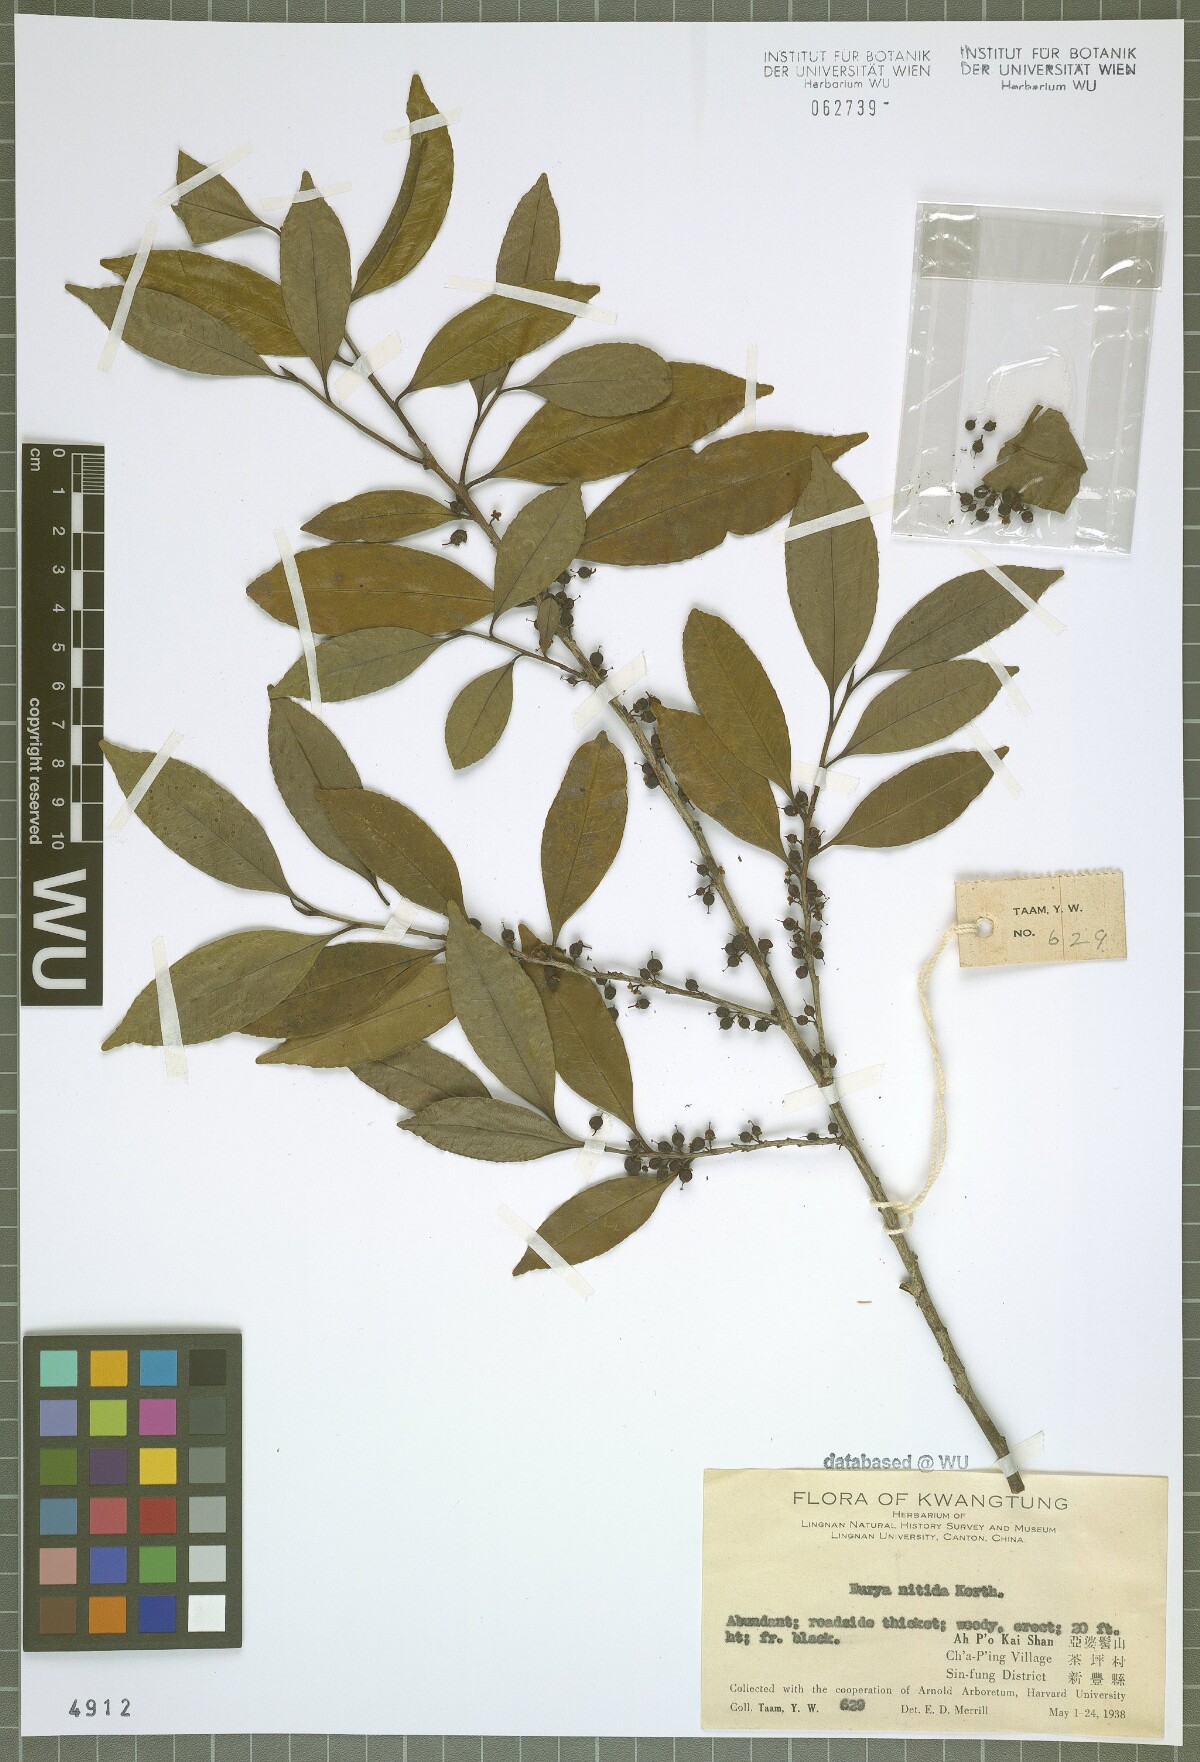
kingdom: Plantae
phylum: Tracheophyta
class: Magnoliopsida
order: Ericales
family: Pentaphylacaceae
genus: Eurya
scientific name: Eurya nitida
